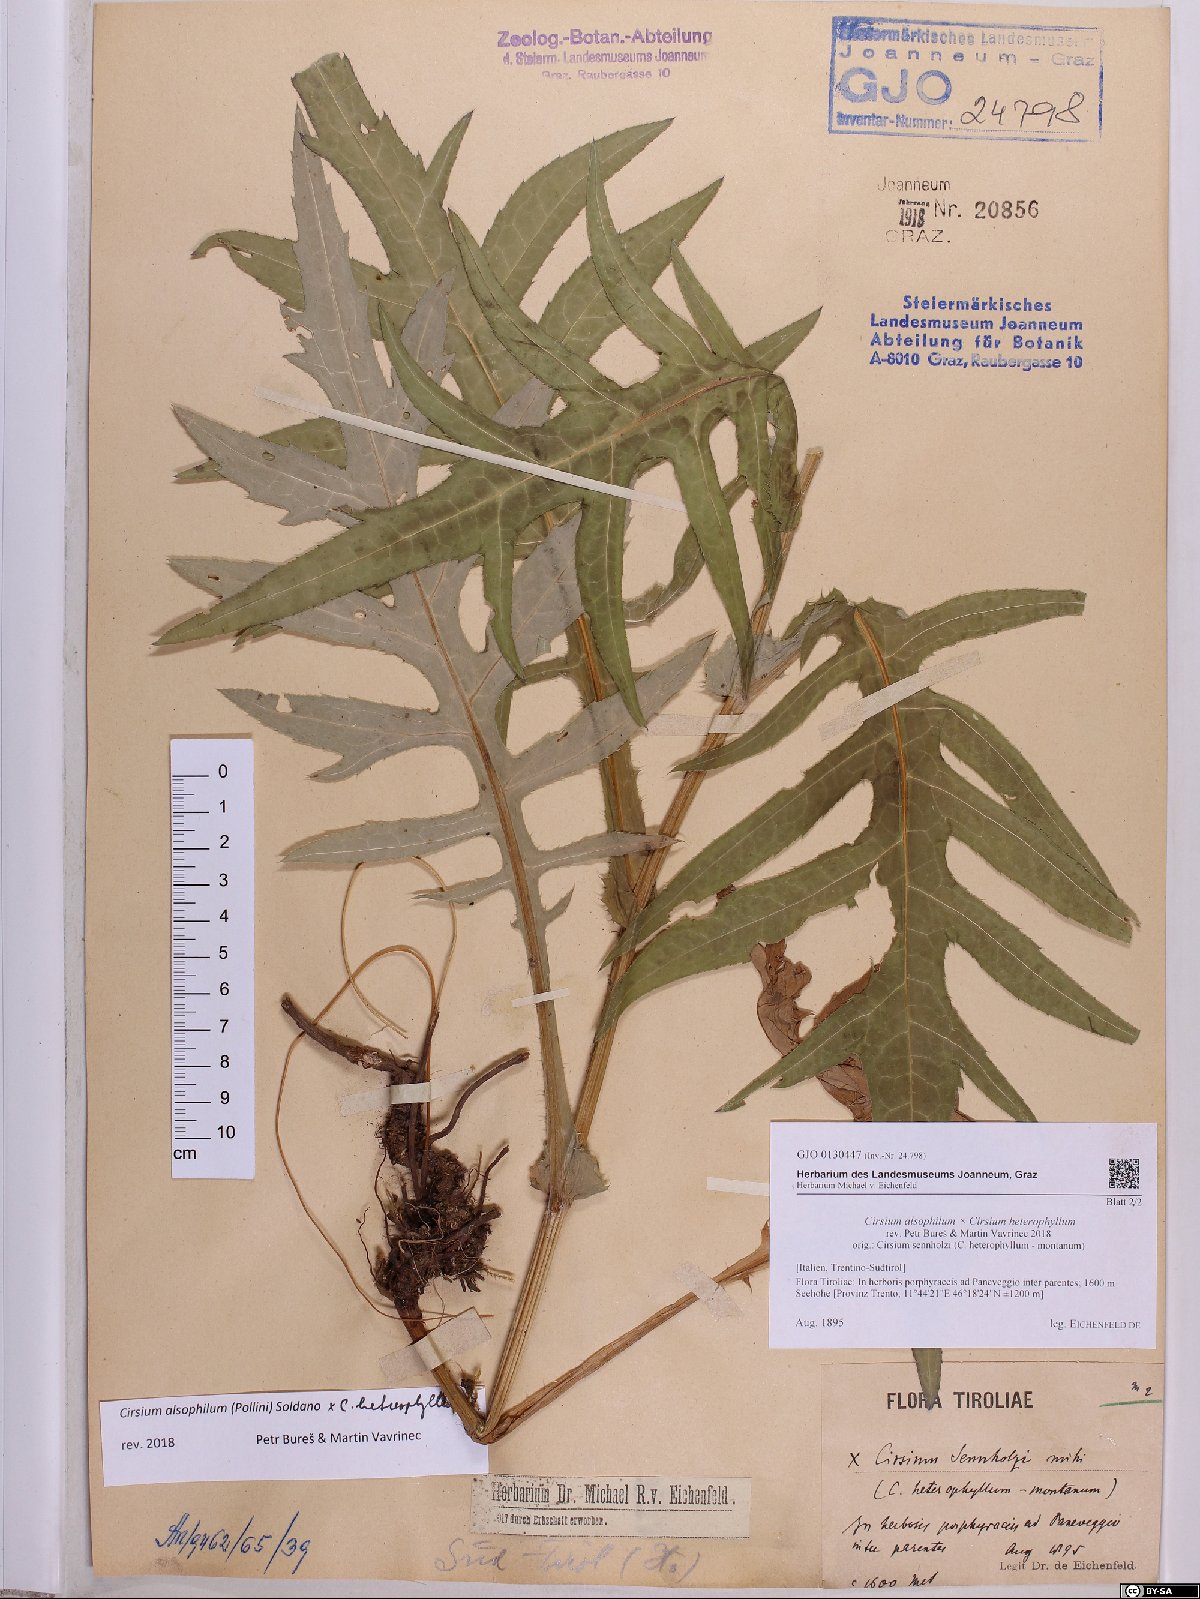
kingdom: Plantae
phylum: Tracheophyta
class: Magnoliopsida
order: Asterales
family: Asteraceae
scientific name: Asteraceae
